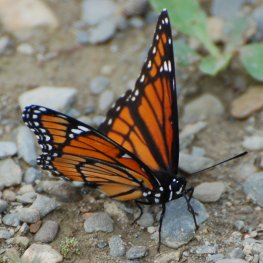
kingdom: Animalia
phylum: Arthropoda
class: Insecta
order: Lepidoptera
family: Nymphalidae
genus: Limenitis
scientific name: Limenitis archippus
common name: Viceroy
